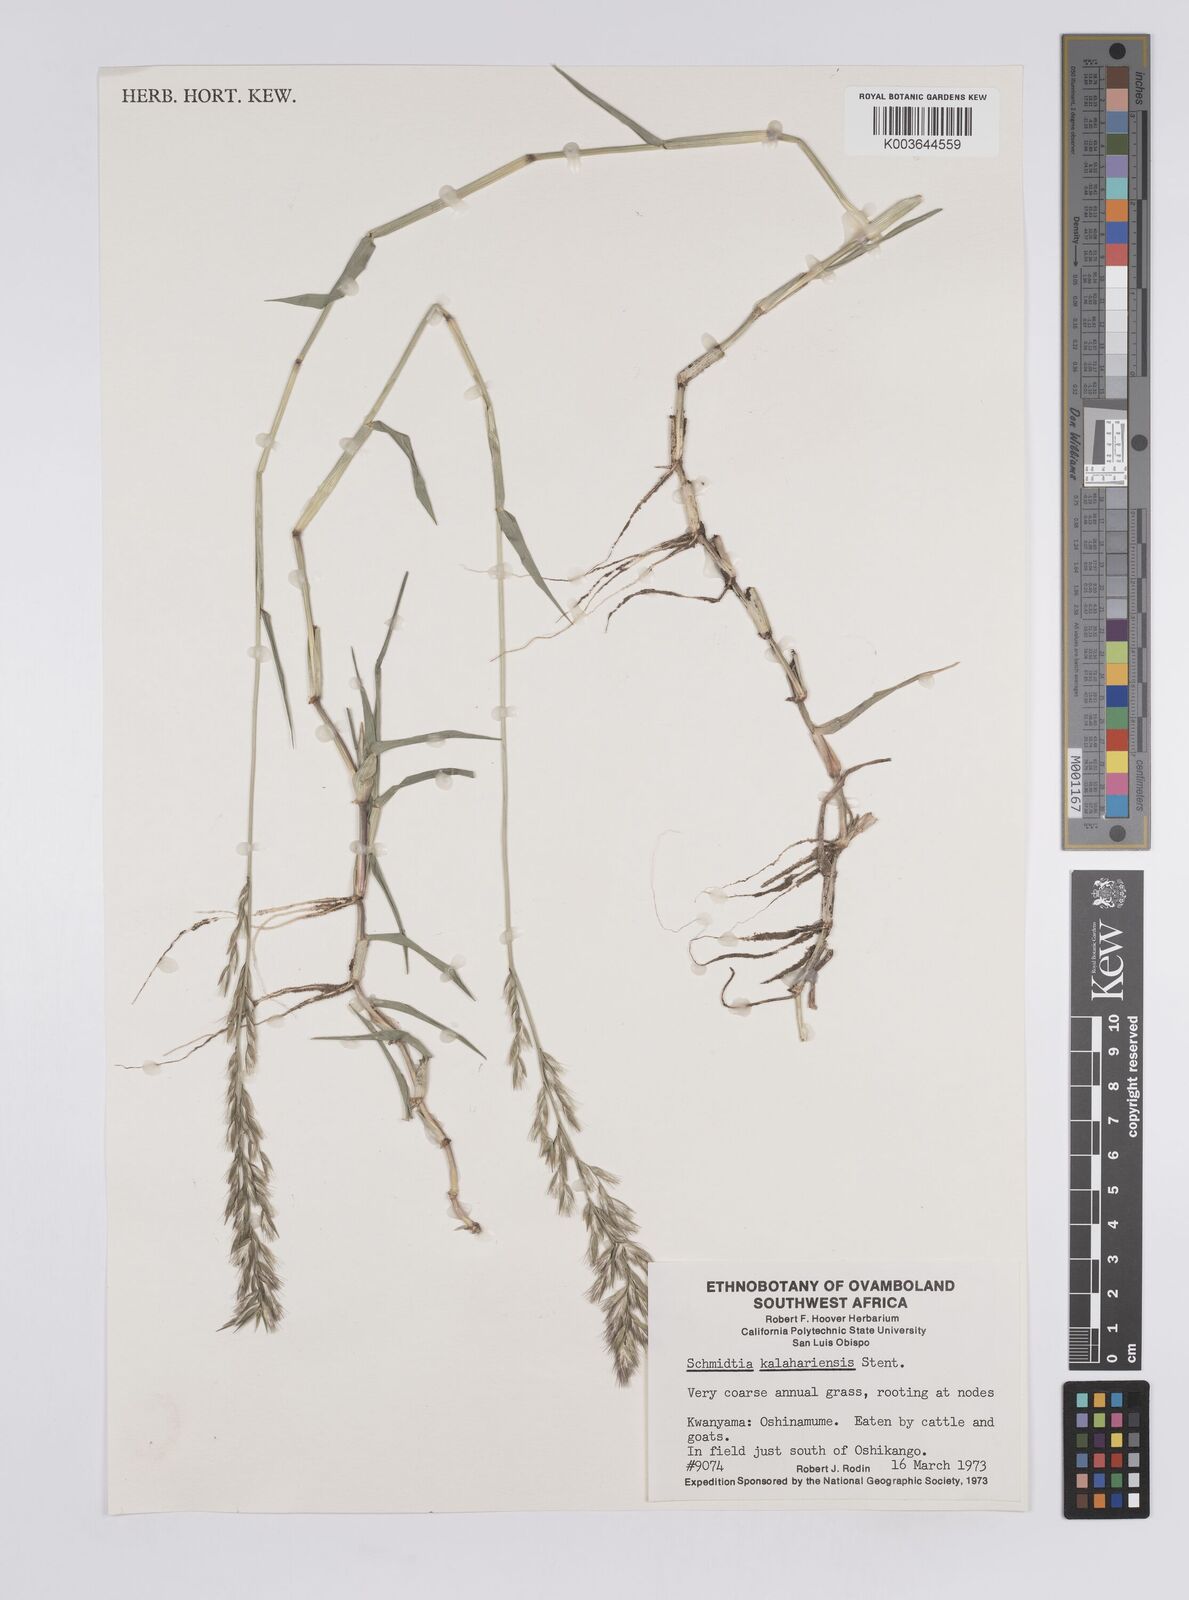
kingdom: Plantae
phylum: Tracheophyta
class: Liliopsida
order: Poales
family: Poaceae
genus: Schmidtia
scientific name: Schmidtia kalahariensis
